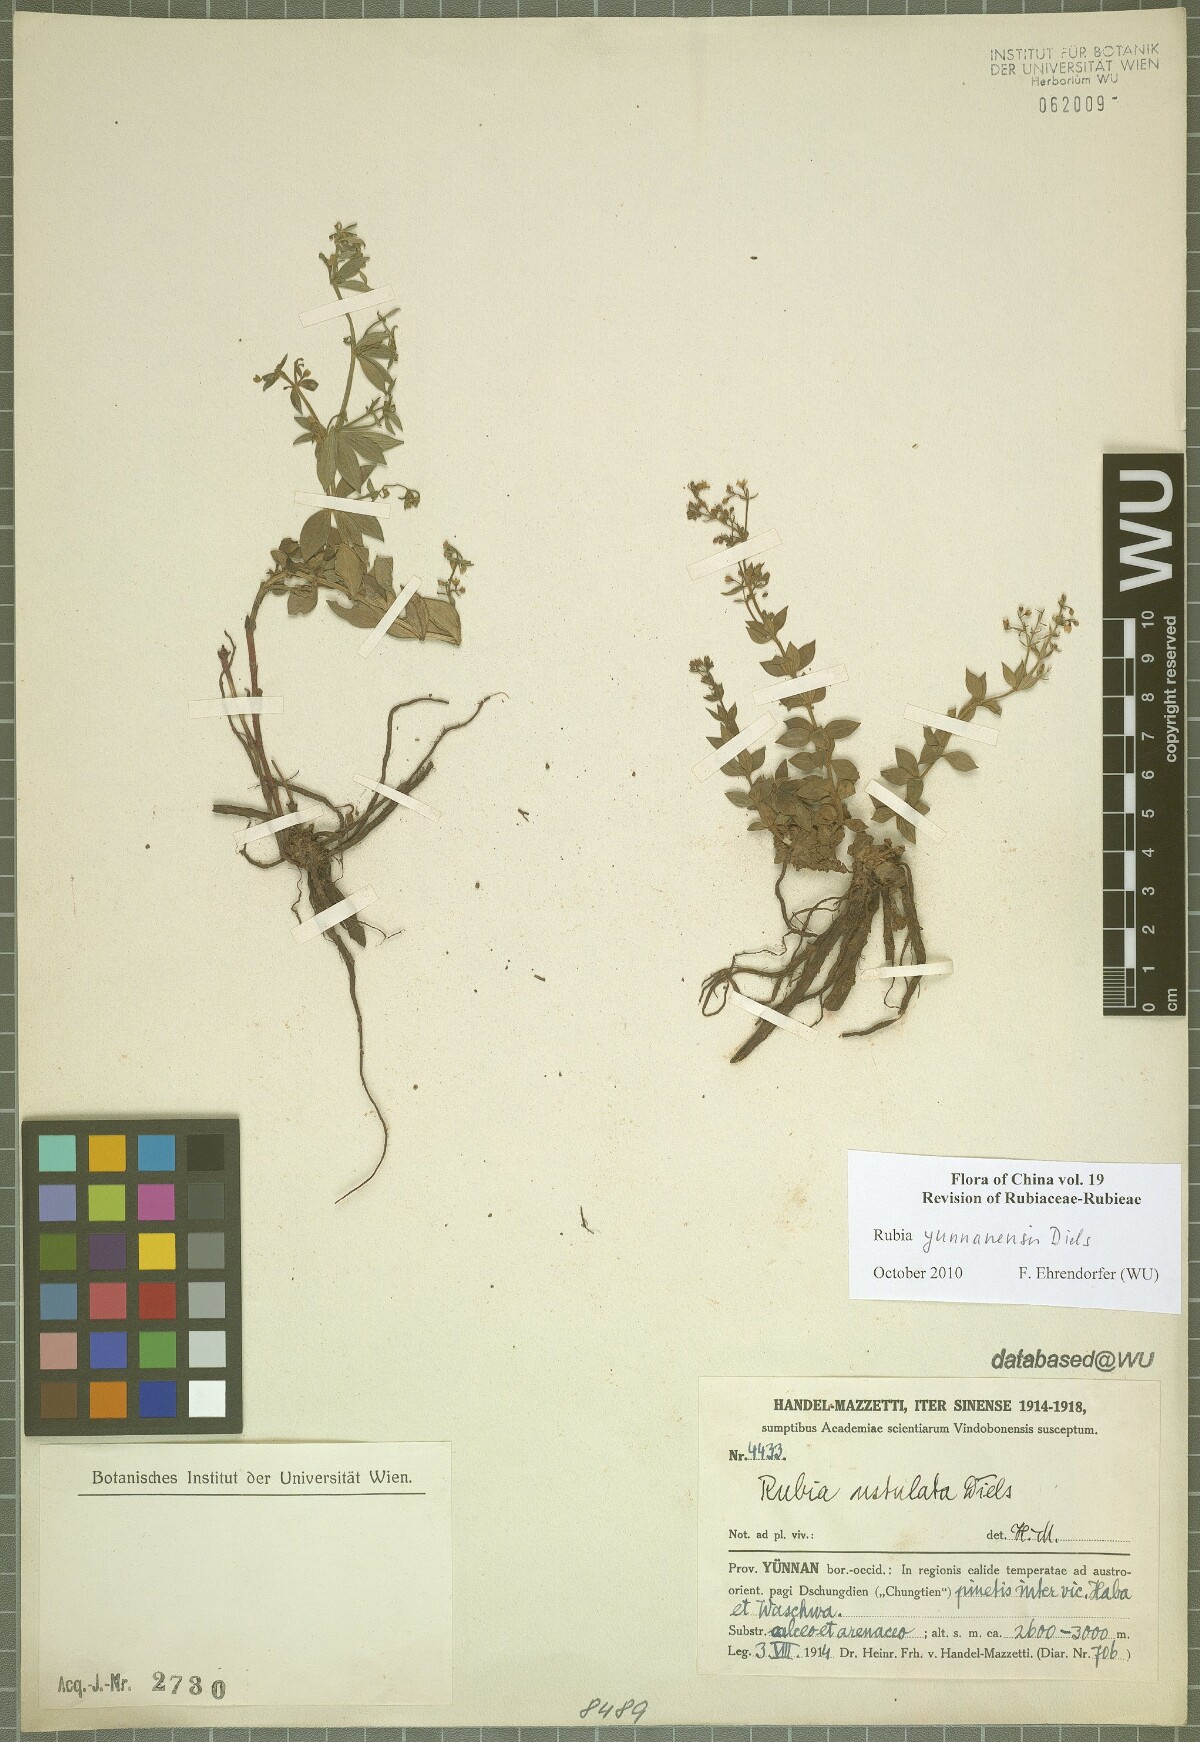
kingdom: Plantae
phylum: Tracheophyta
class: Magnoliopsida
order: Gentianales
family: Rubiaceae
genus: Rubia
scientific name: Rubia yunnanensis
